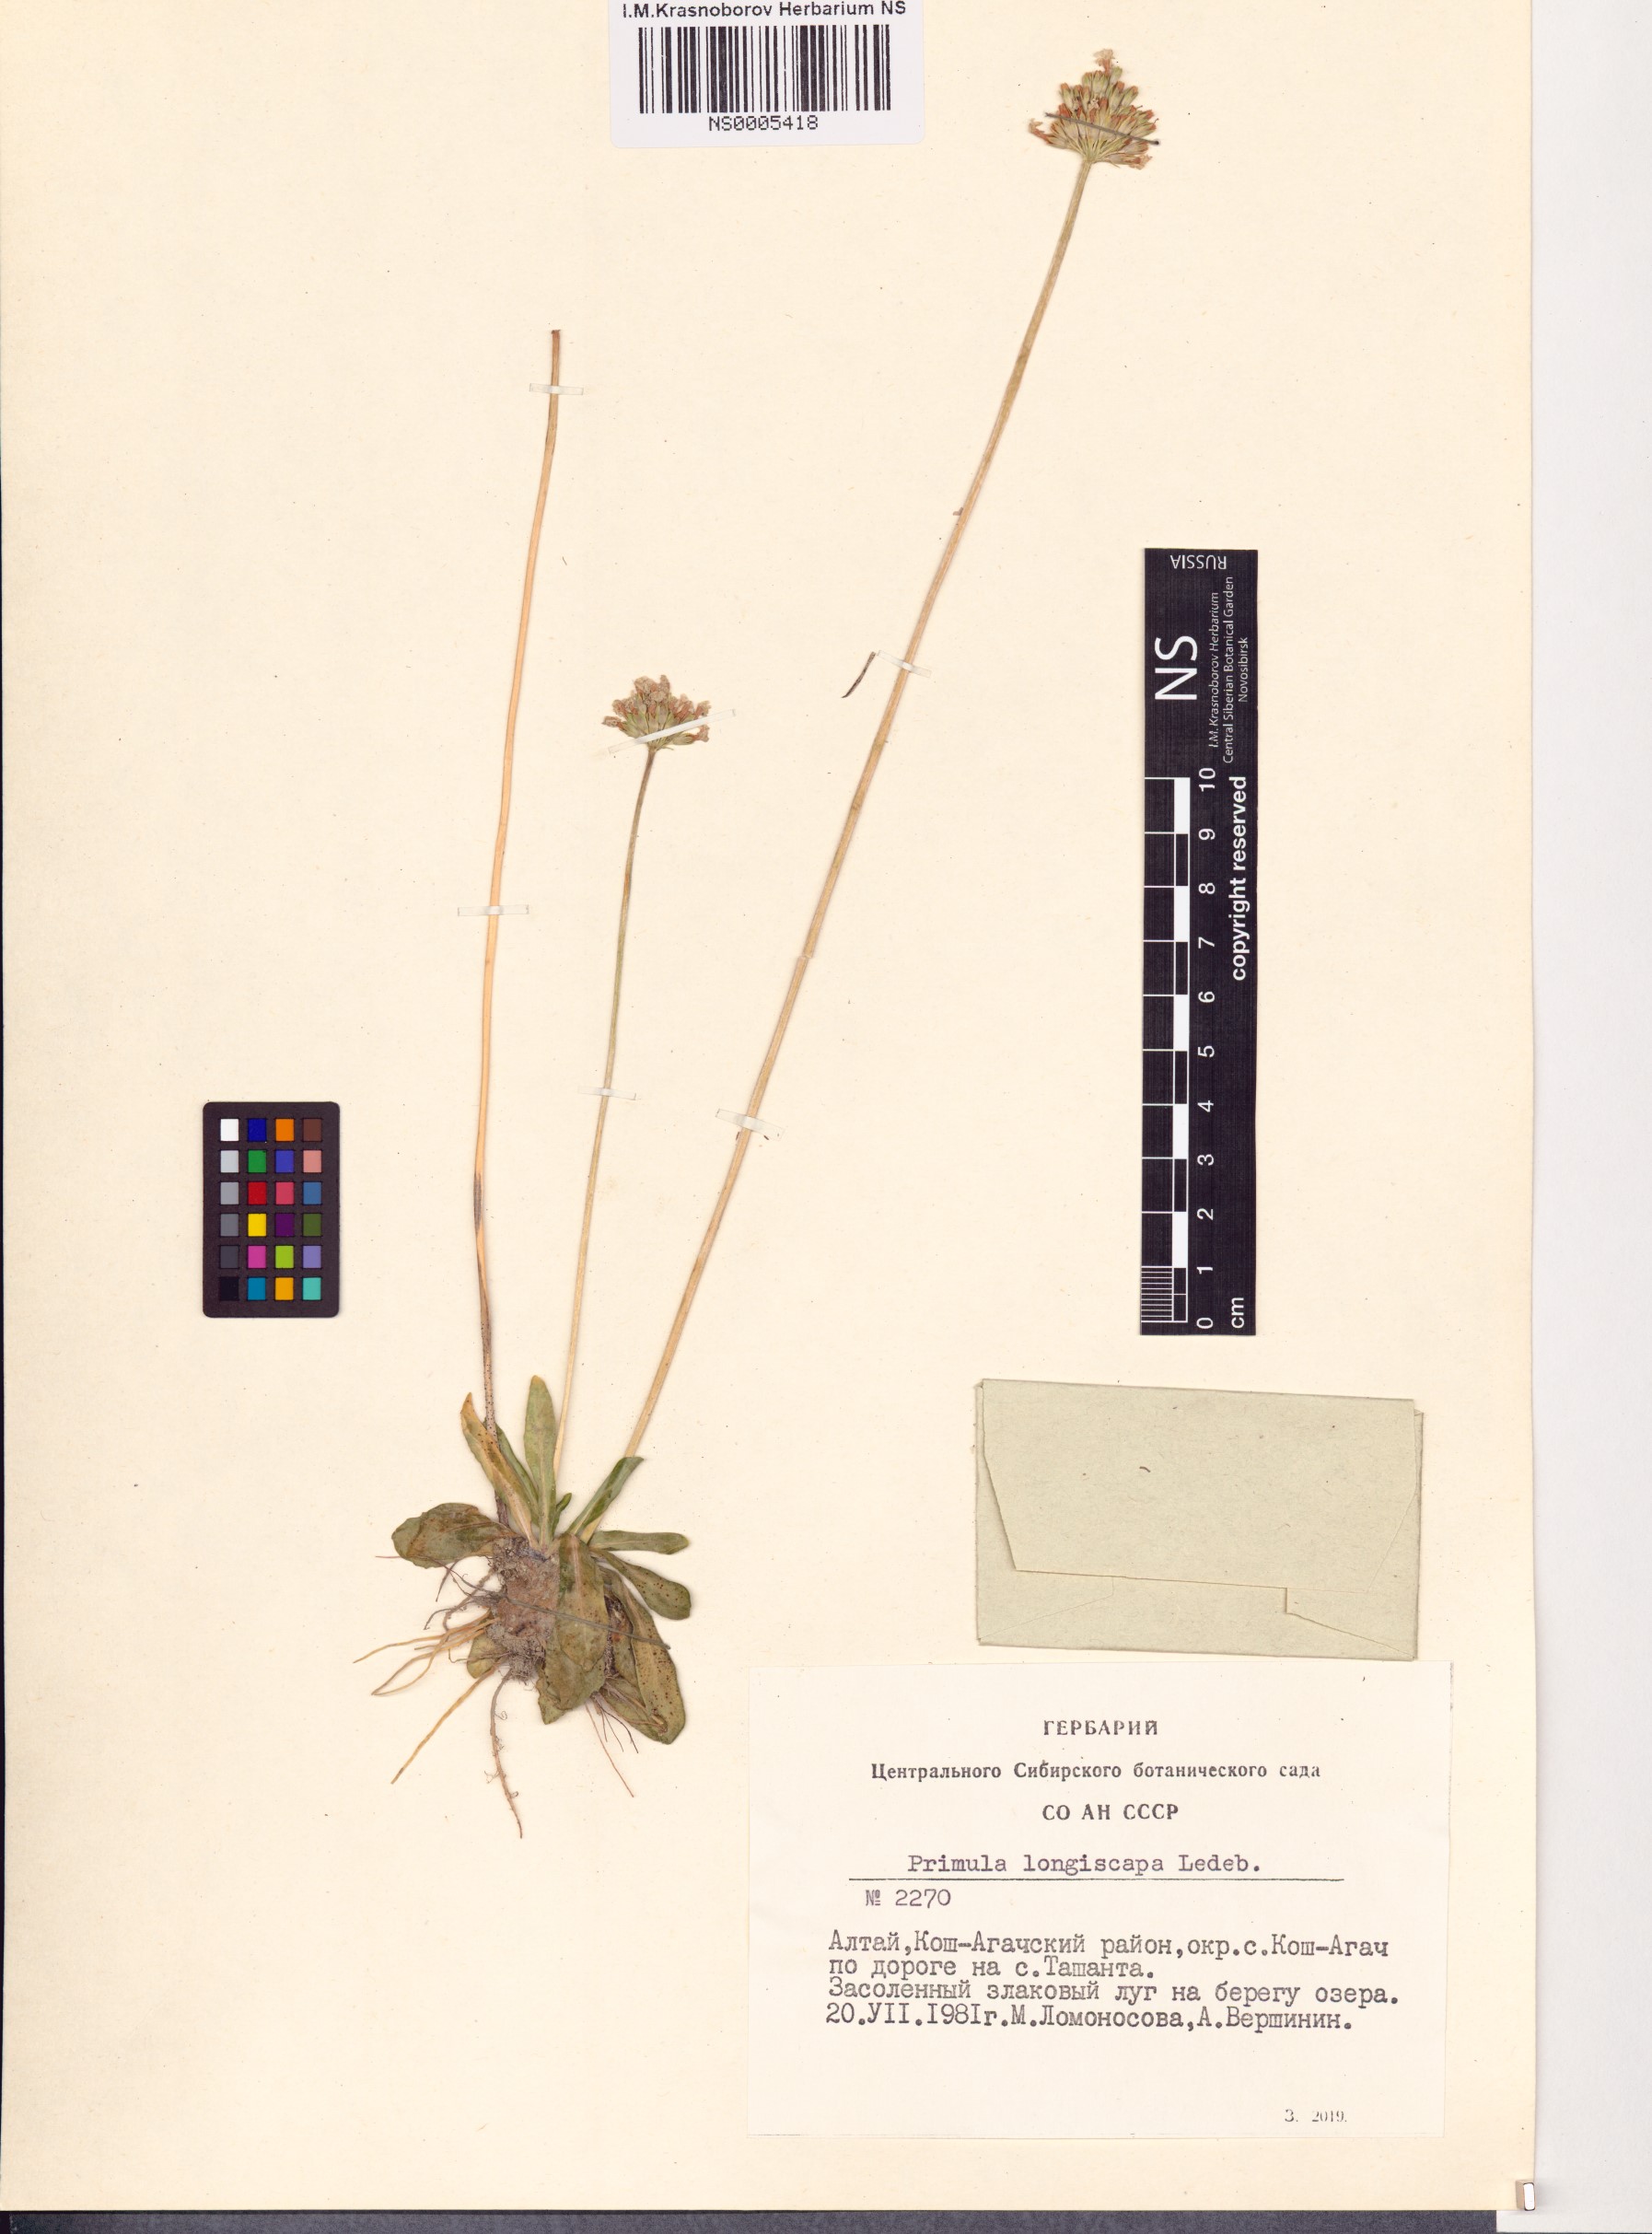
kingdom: Plantae
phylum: Tracheophyta
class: Magnoliopsida
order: Ericales
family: Primulaceae
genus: Primula
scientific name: Primula longiscapa
